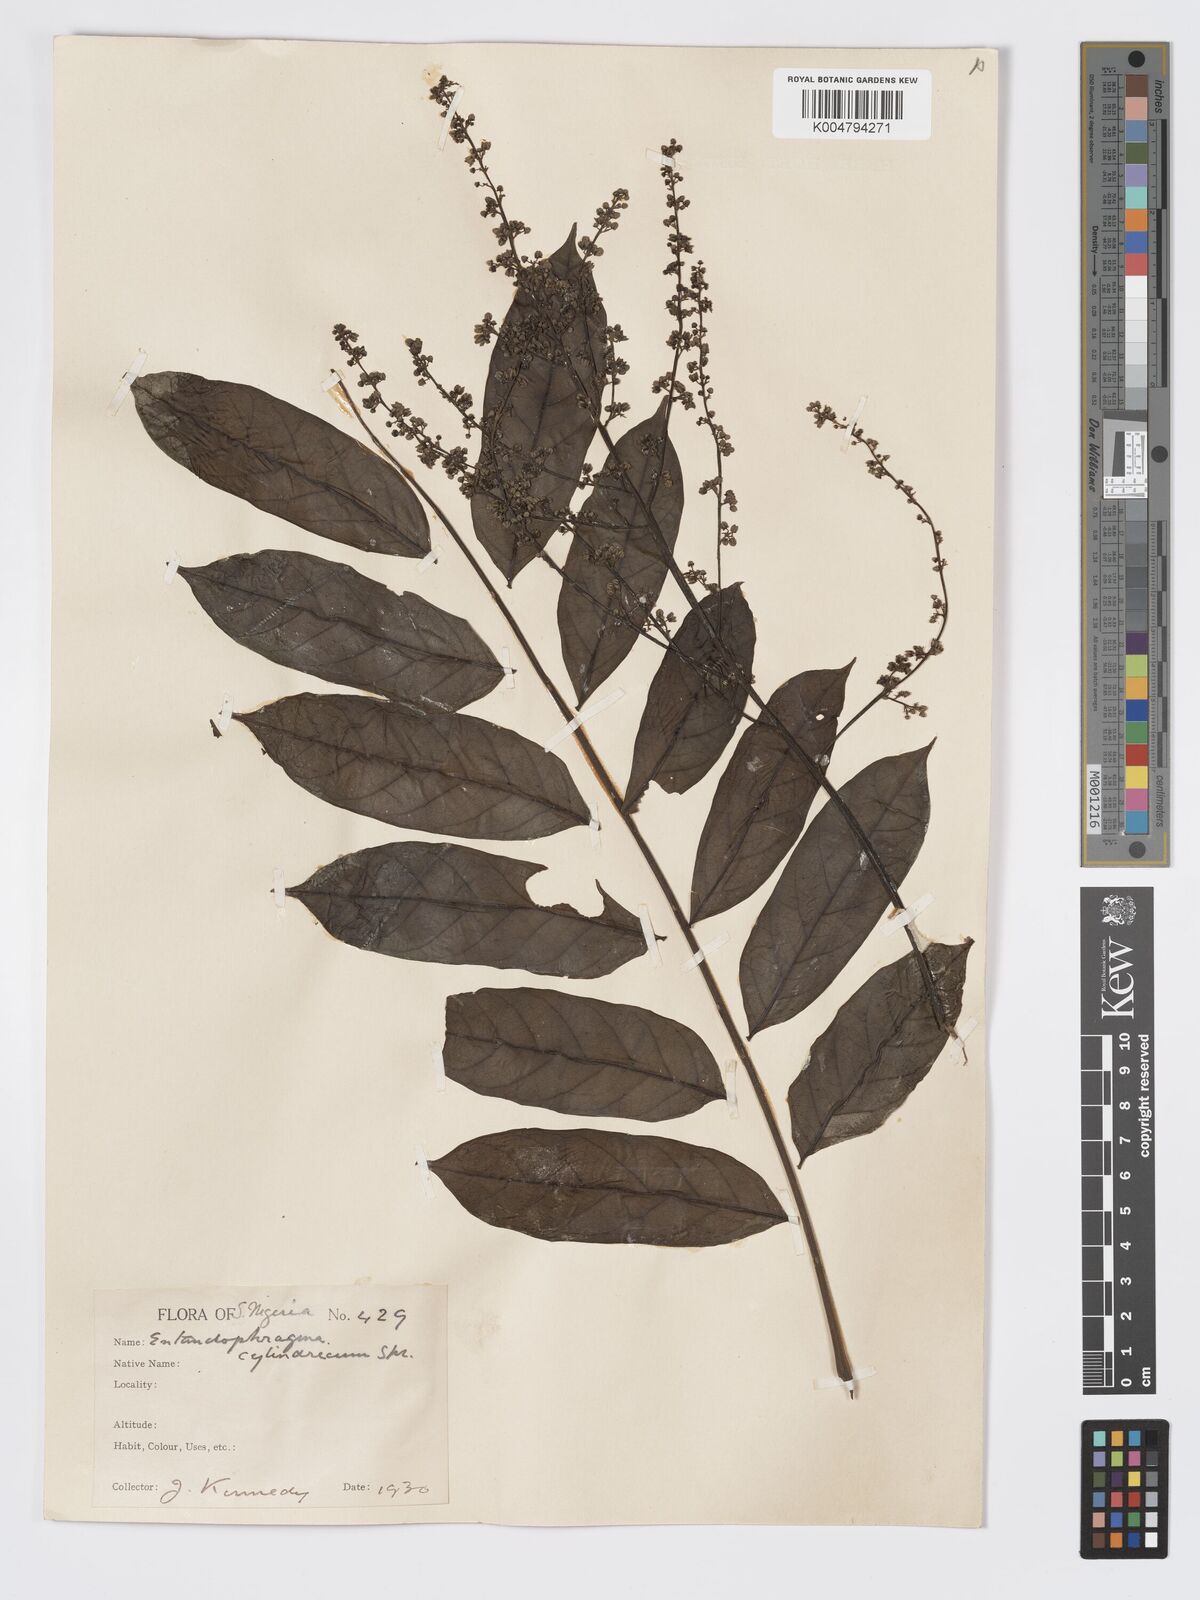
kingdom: Plantae
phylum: Tracheophyta
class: Magnoliopsida
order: Sapindales
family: Meliaceae
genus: Entandrophragma
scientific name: Entandrophragma cylindricum
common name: Sapele
